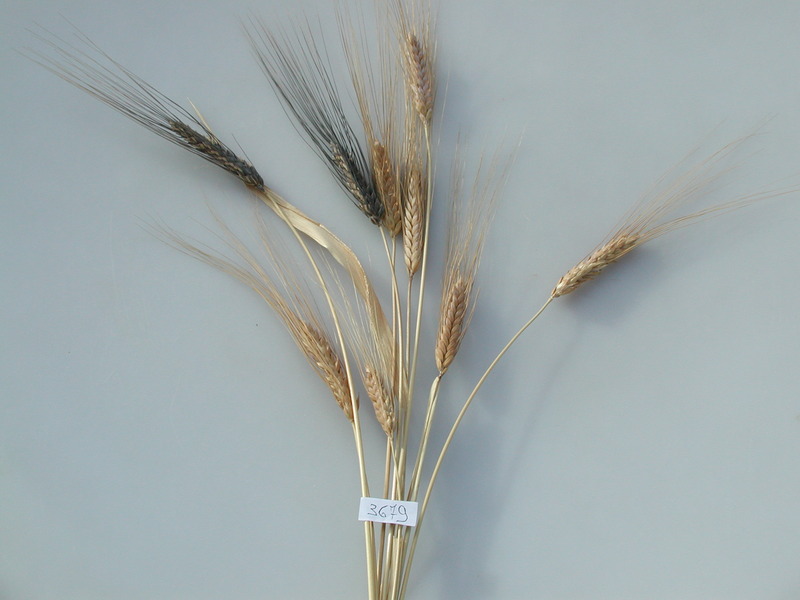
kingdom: Plantae
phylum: Tracheophyta
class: Liliopsida
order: Poales
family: Poaceae
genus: Triticum
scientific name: Triticum turgidum
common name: Wheat
